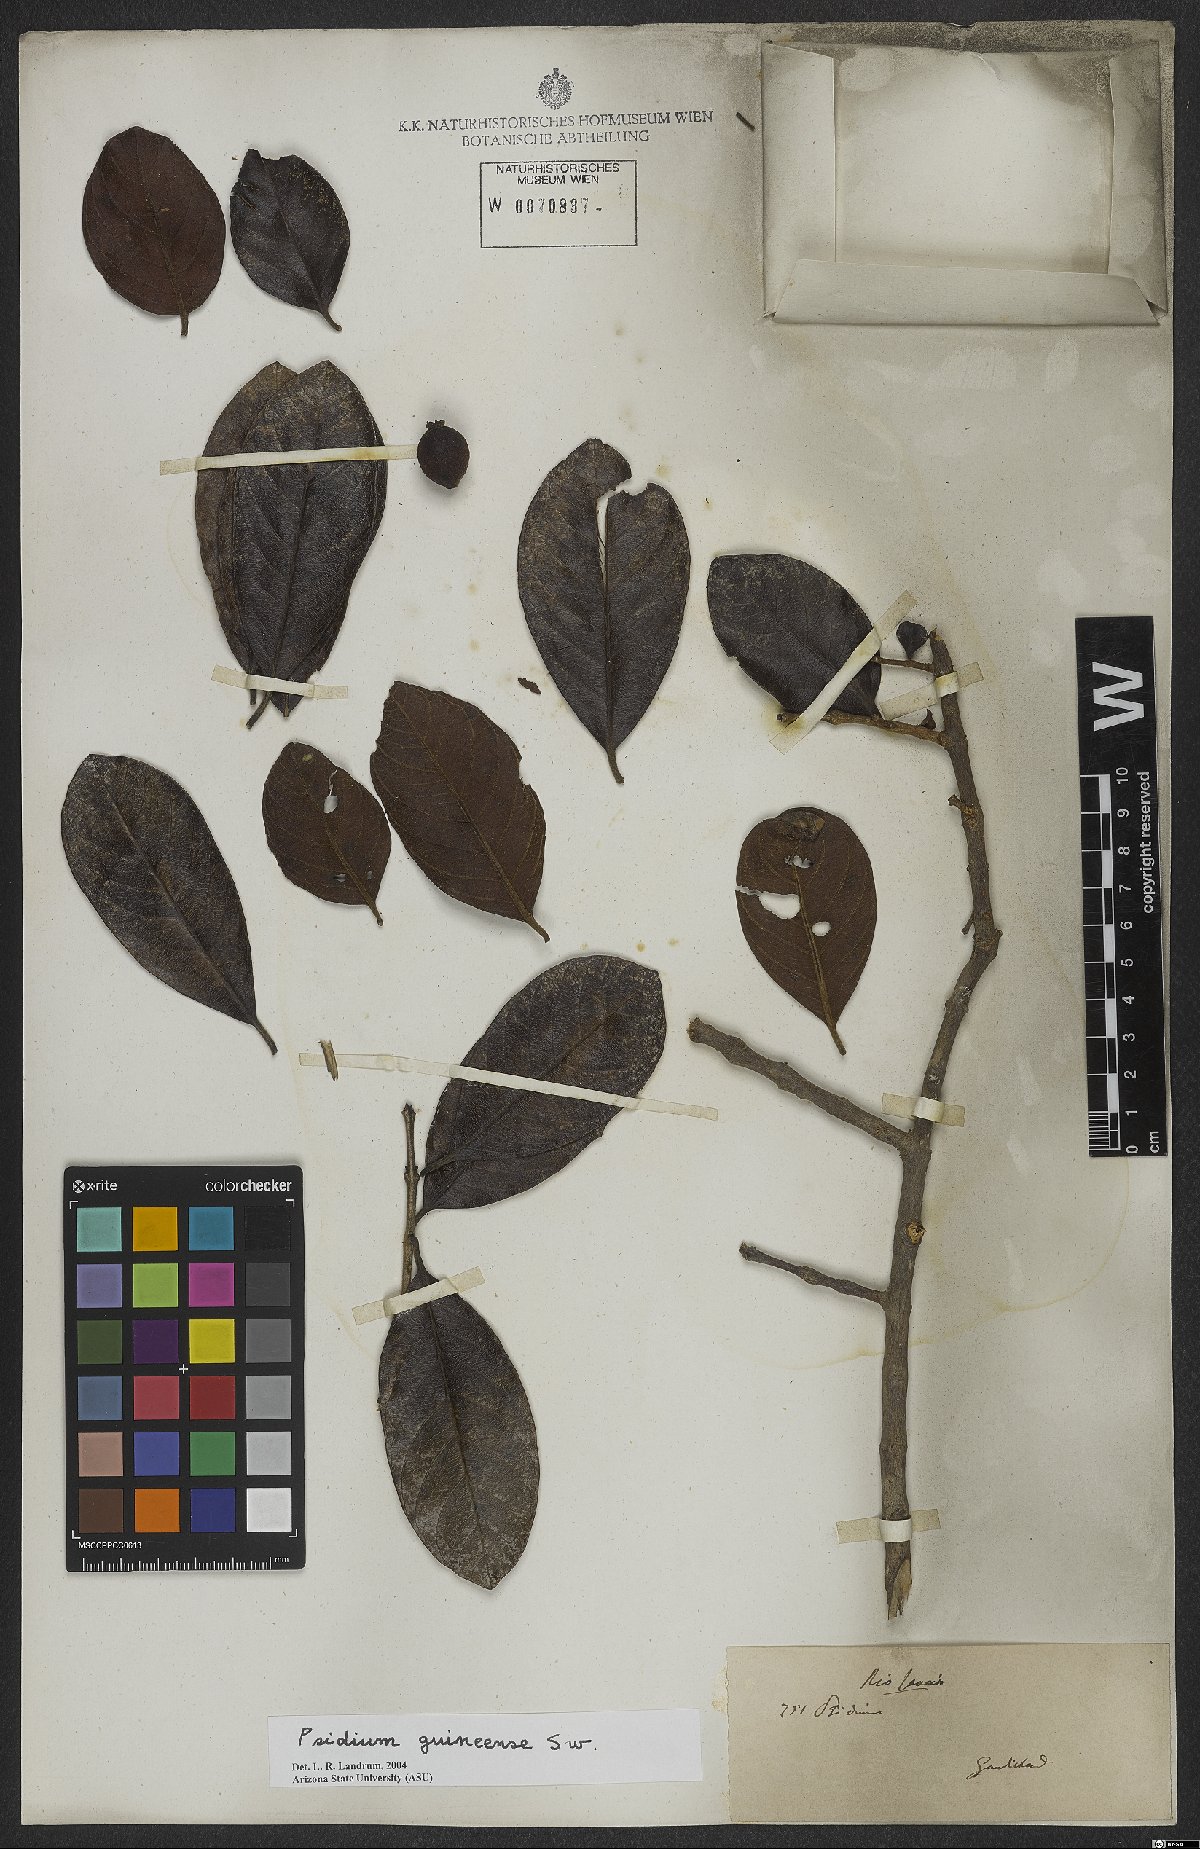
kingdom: Plantae
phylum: Tracheophyta
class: Magnoliopsida
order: Myrtales
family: Myrtaceae
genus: Psidium
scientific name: Psidium guineense
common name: Brazilian guava
